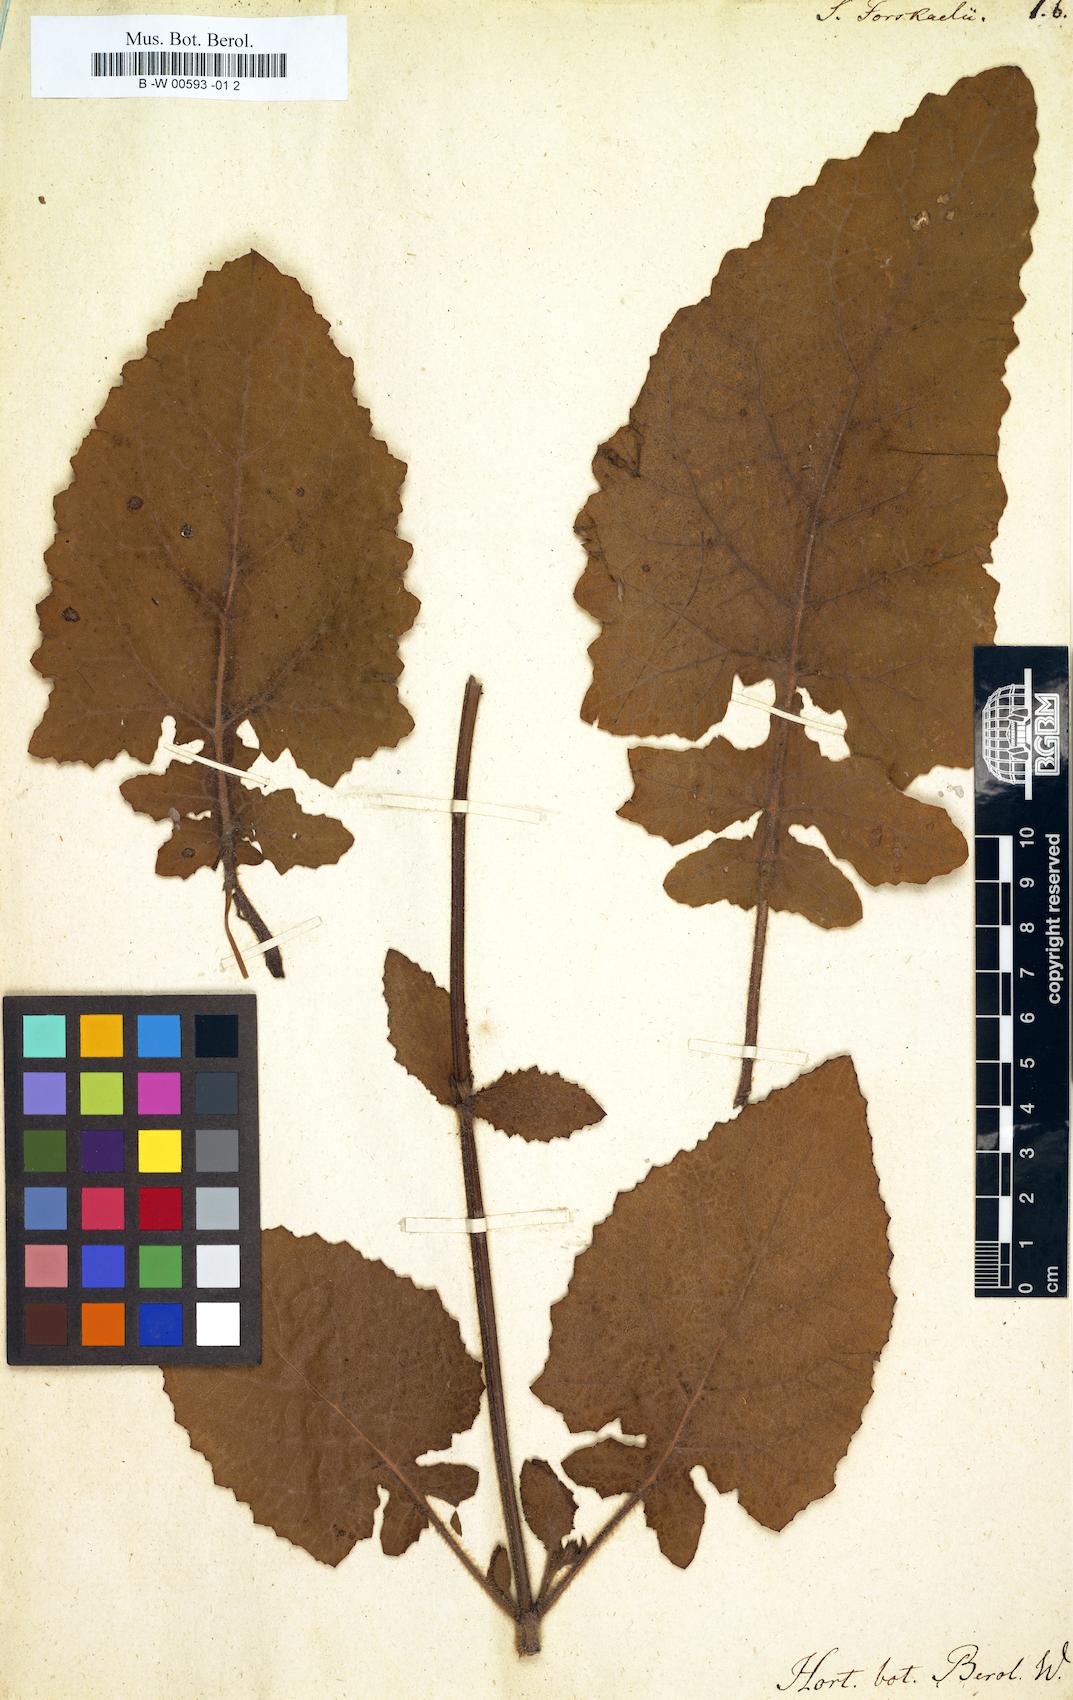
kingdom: Plantae
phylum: Tracheophyta
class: Magnoliopsida
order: Lamiales
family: Lamiaceae
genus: Salvia
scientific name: Salvia
